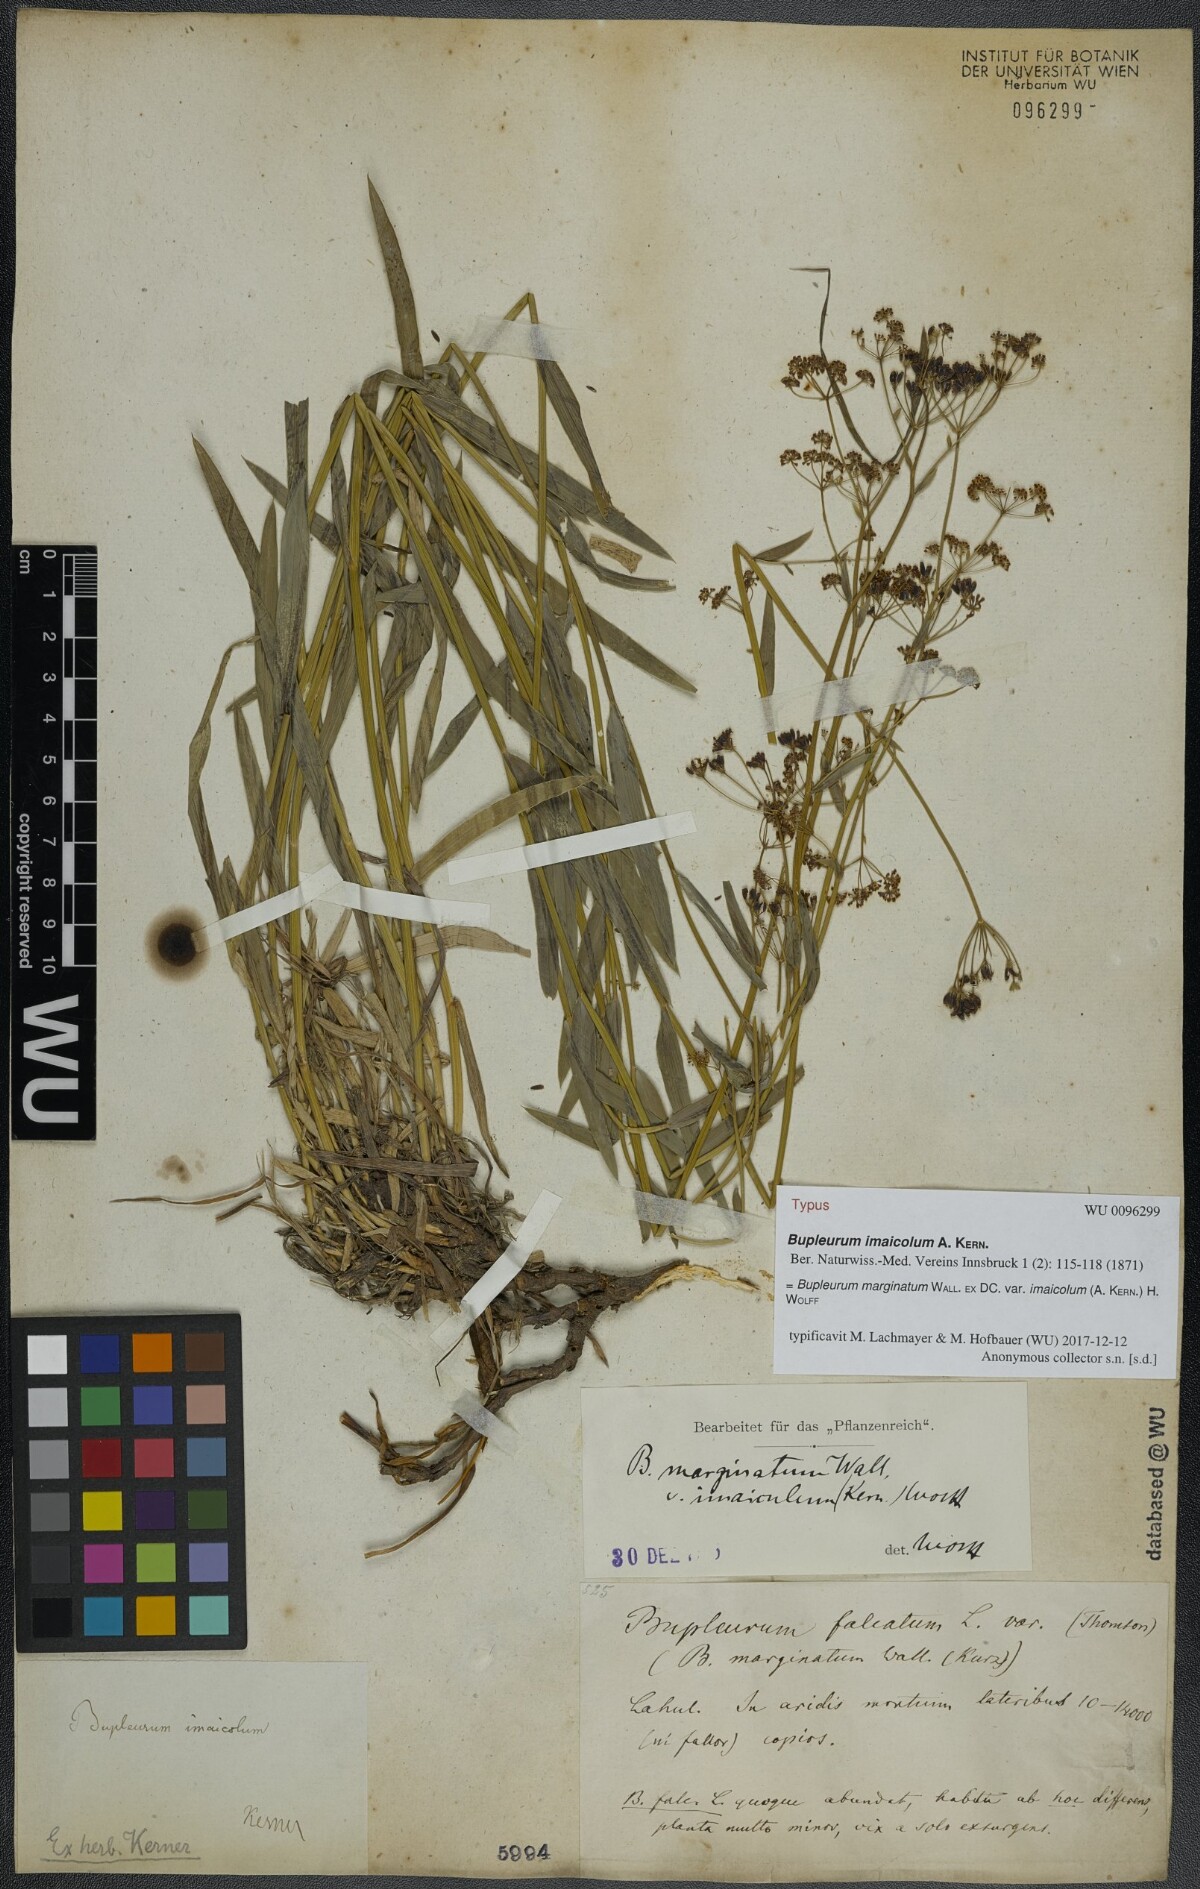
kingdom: Plantae
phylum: Tracheophyta
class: Magnoliopsida
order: Apiales
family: Apiaceae
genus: Bupleurum
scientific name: Bupleurum imaicola
